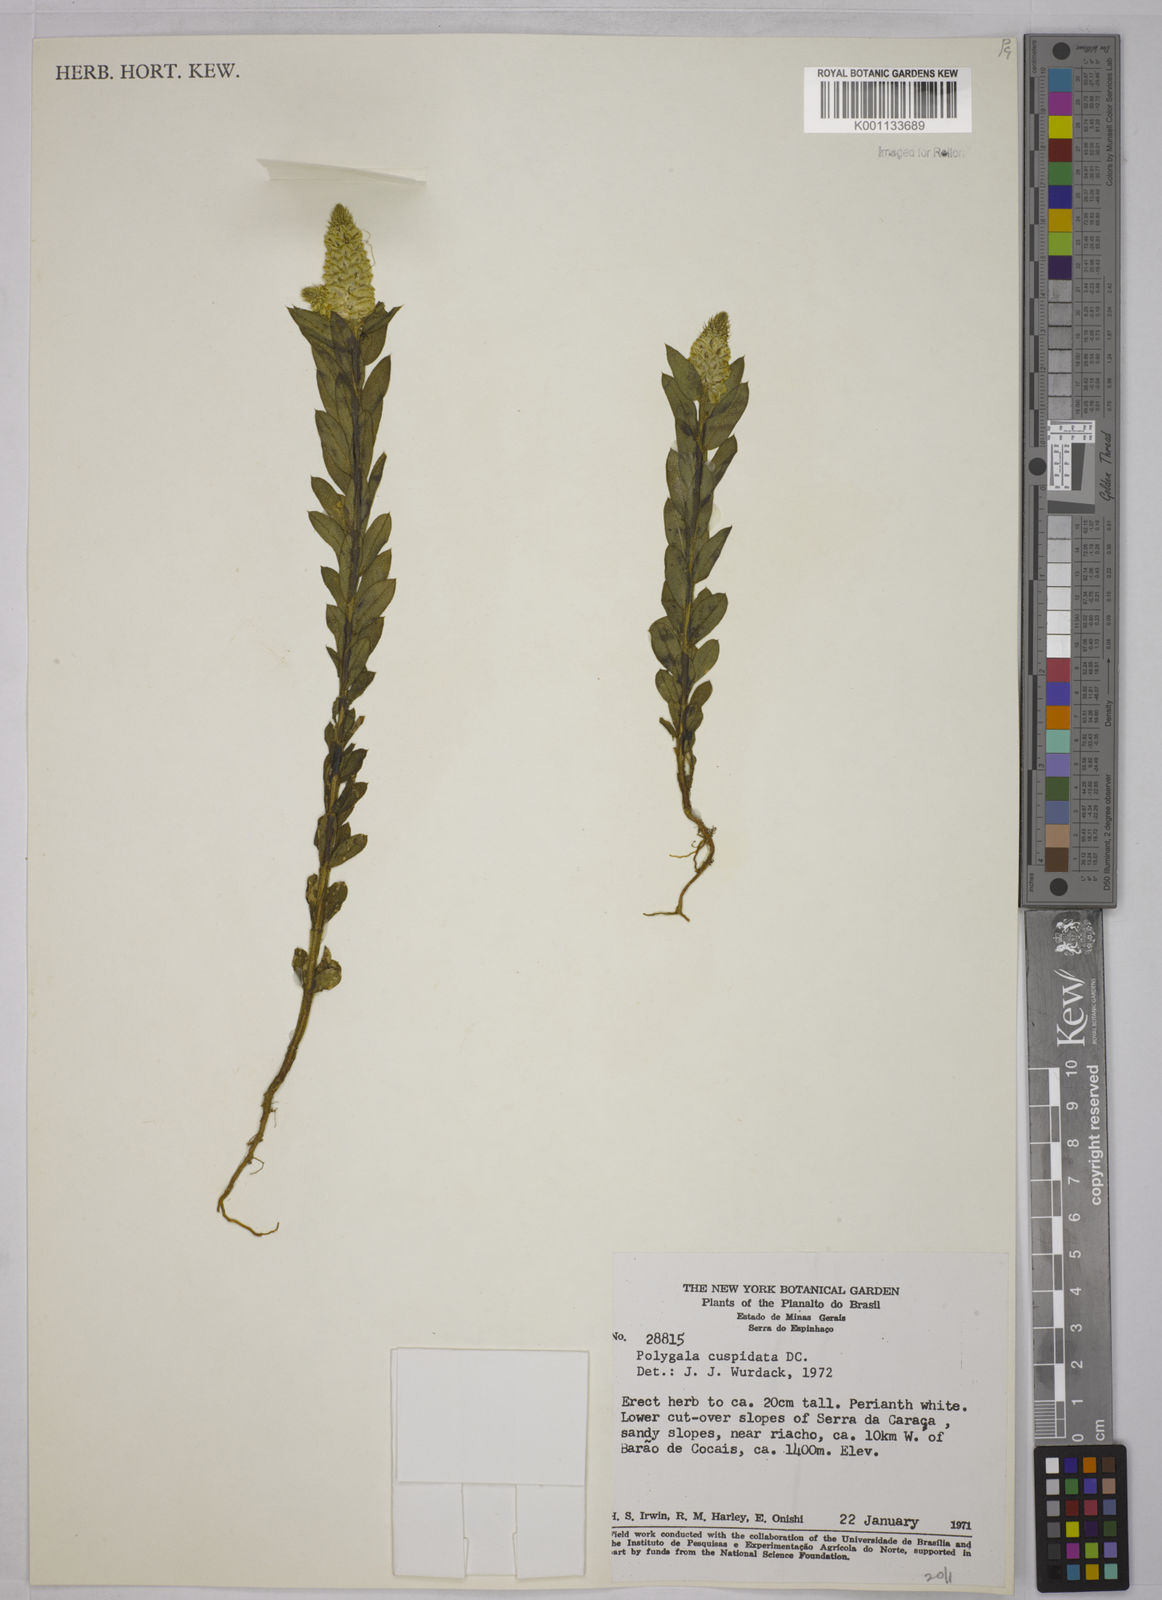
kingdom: Plantae
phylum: Tracheophyta
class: Magnoliopsida
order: Fabales
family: Polygalaceae
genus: Polygala
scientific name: Polygala cuspidata
